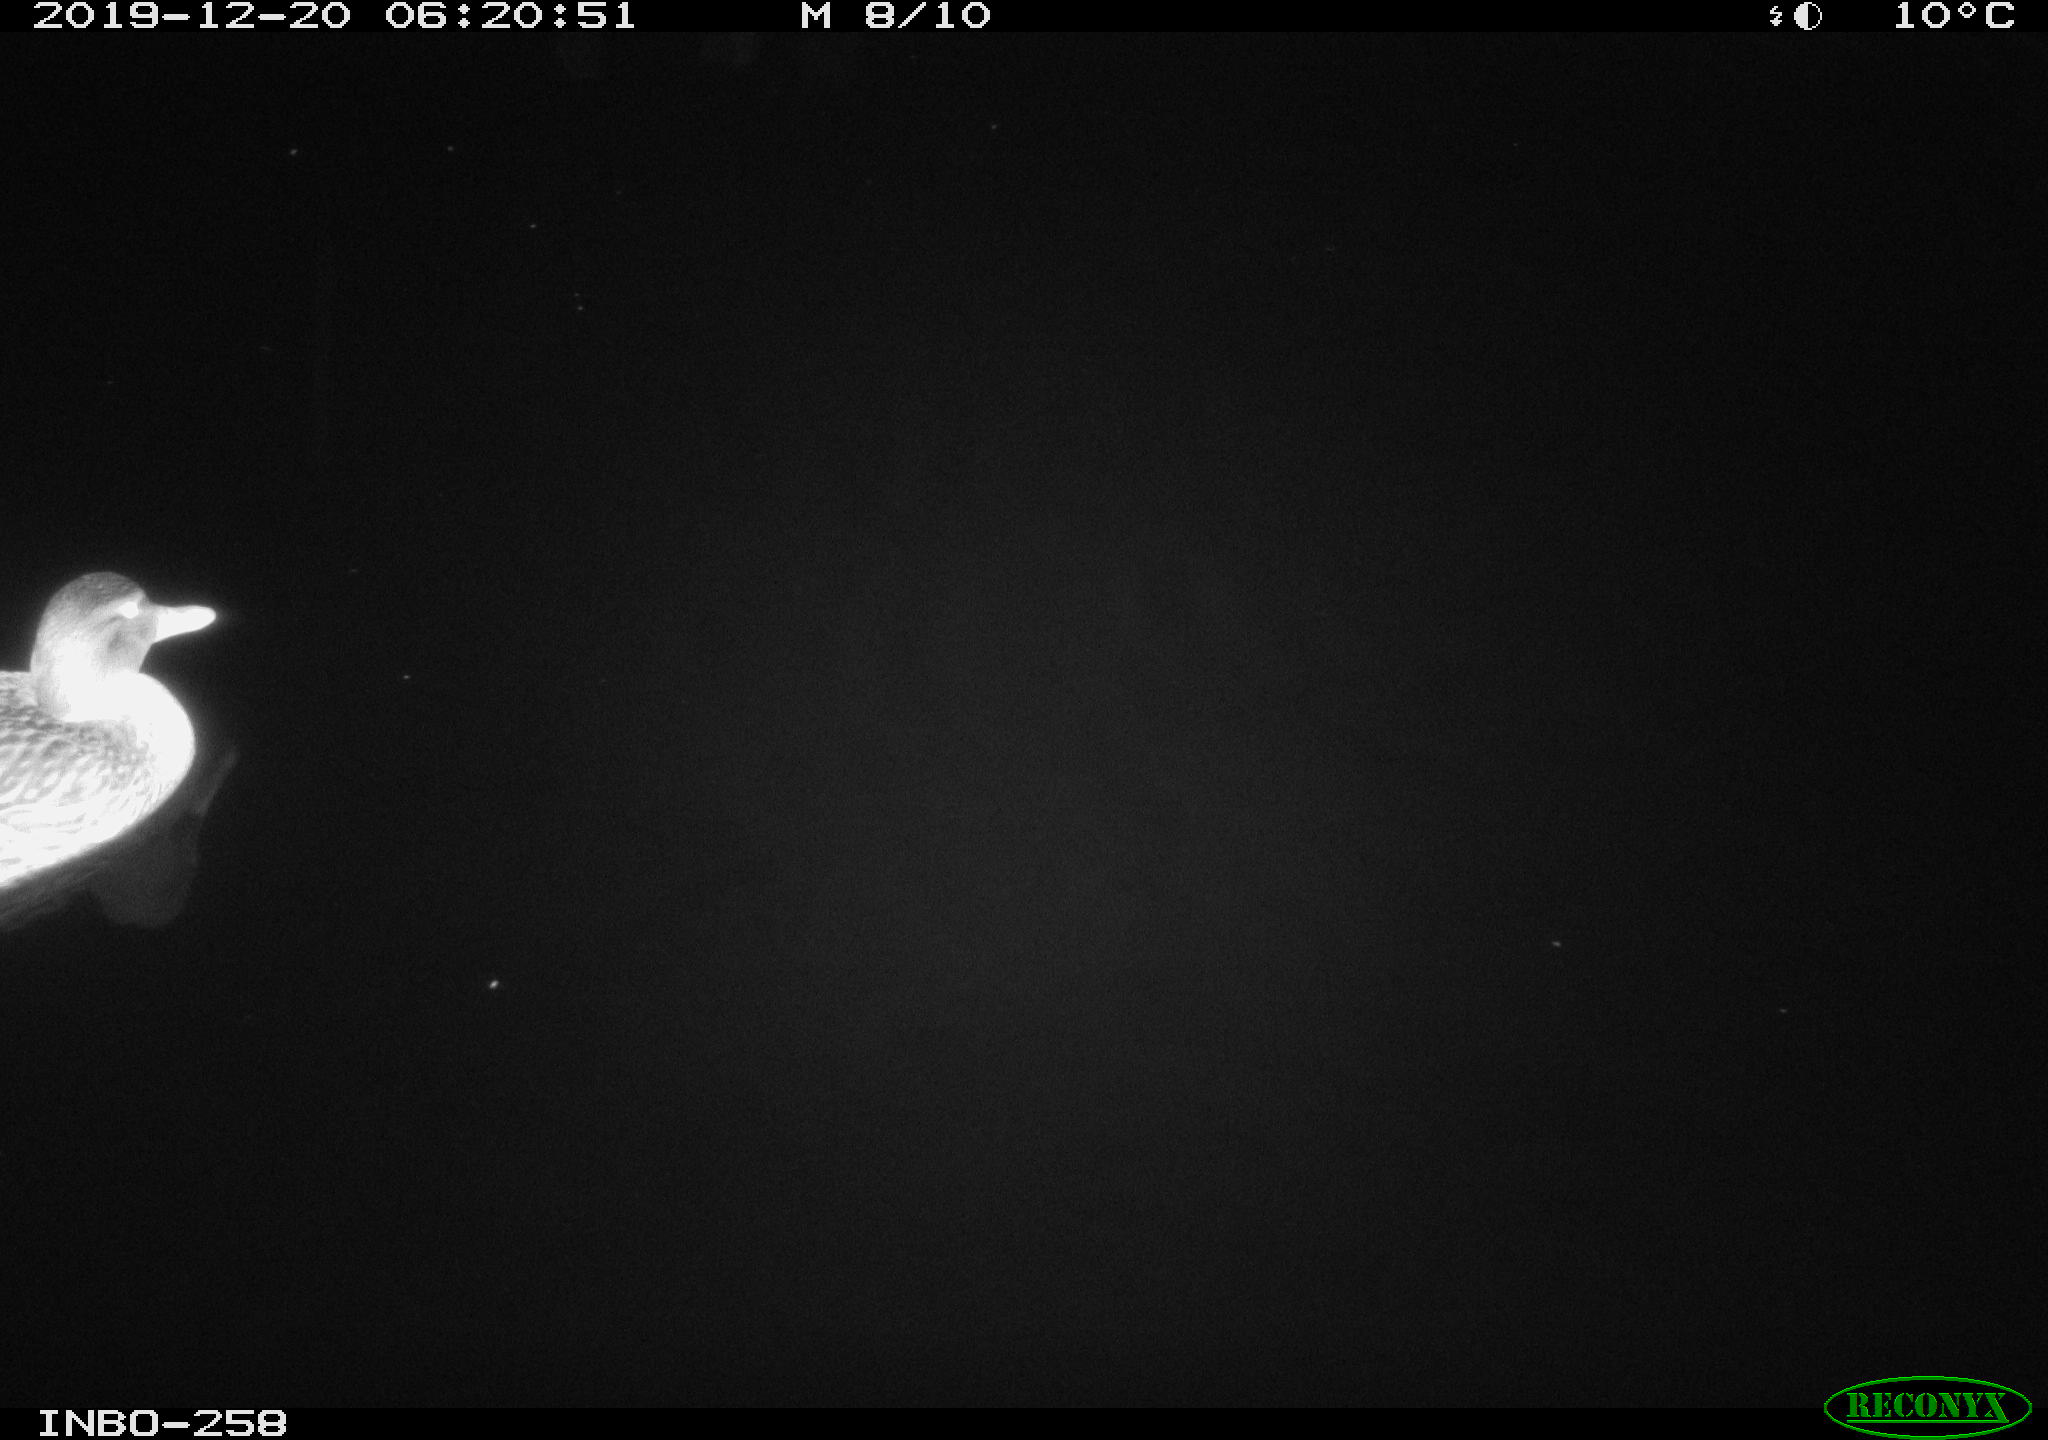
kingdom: Animalia
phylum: Chordata
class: Aves
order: Anseriformes
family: Anatidae
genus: Anas
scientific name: Anas platyrhynchos
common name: Mallard
